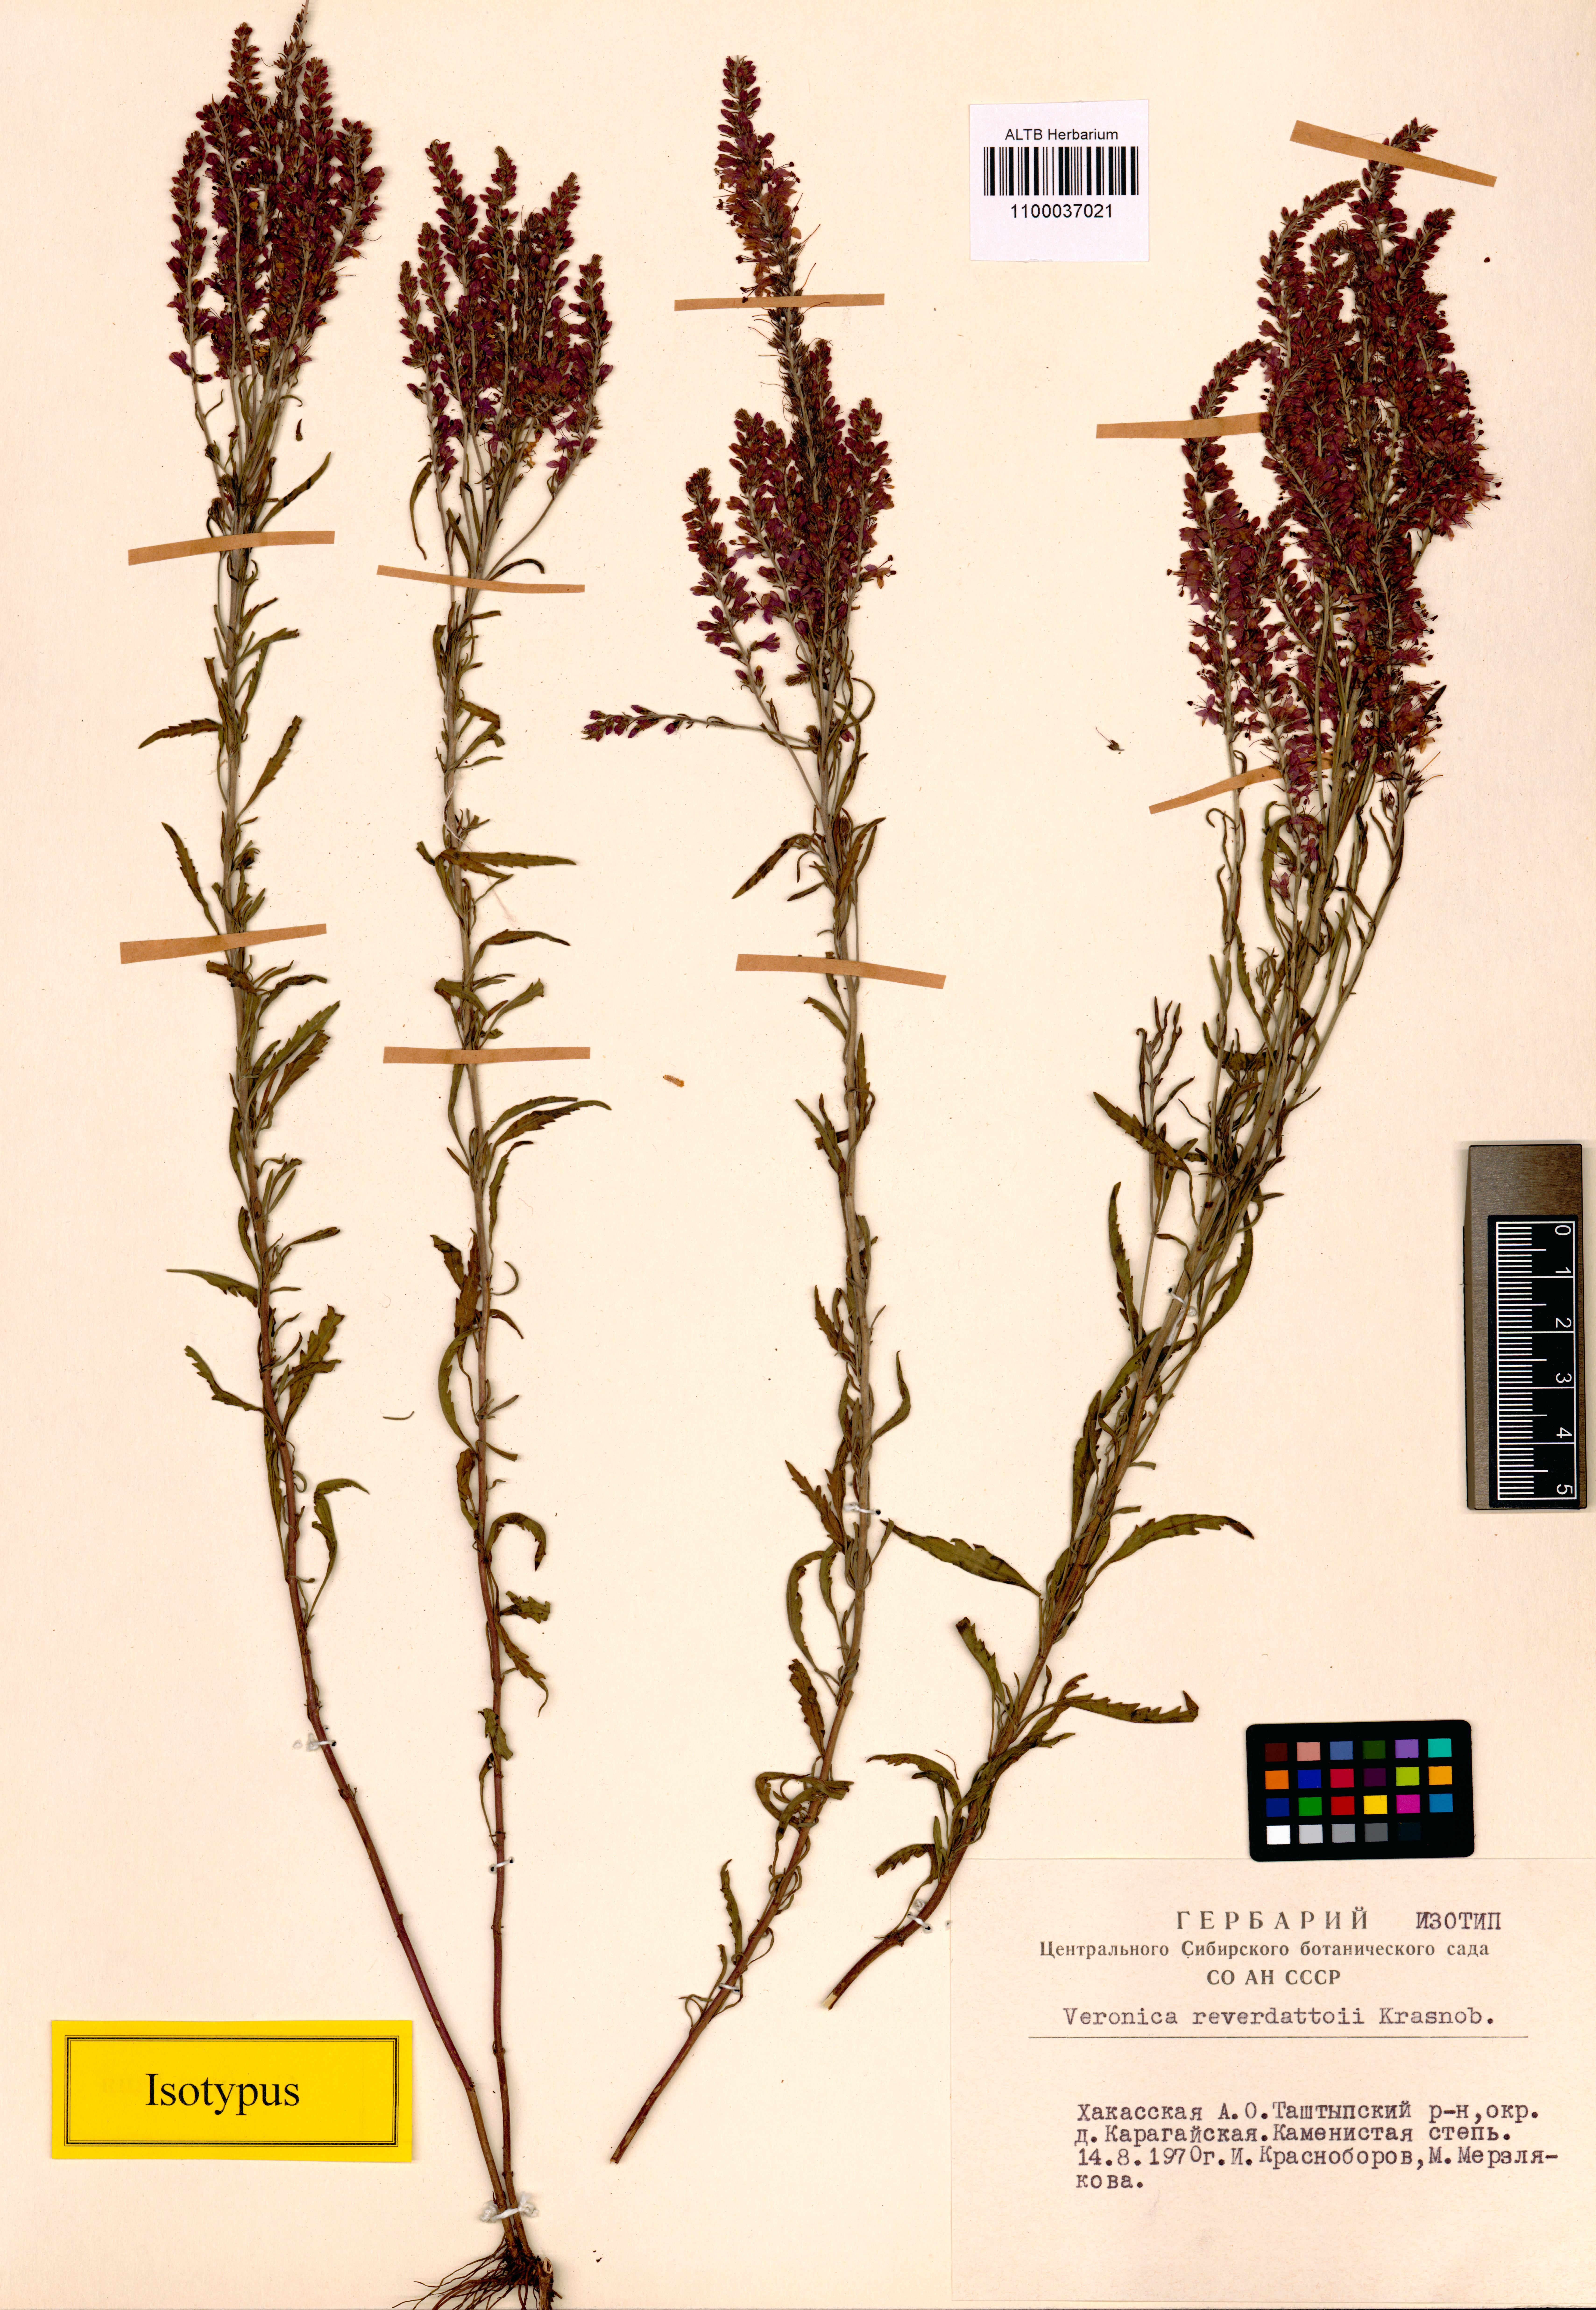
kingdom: Plantae
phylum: Tracheophyta
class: Magnoliopsida
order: Lamiales
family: Plantaginaceae
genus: Veronica
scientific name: Veronica reverdattoi
